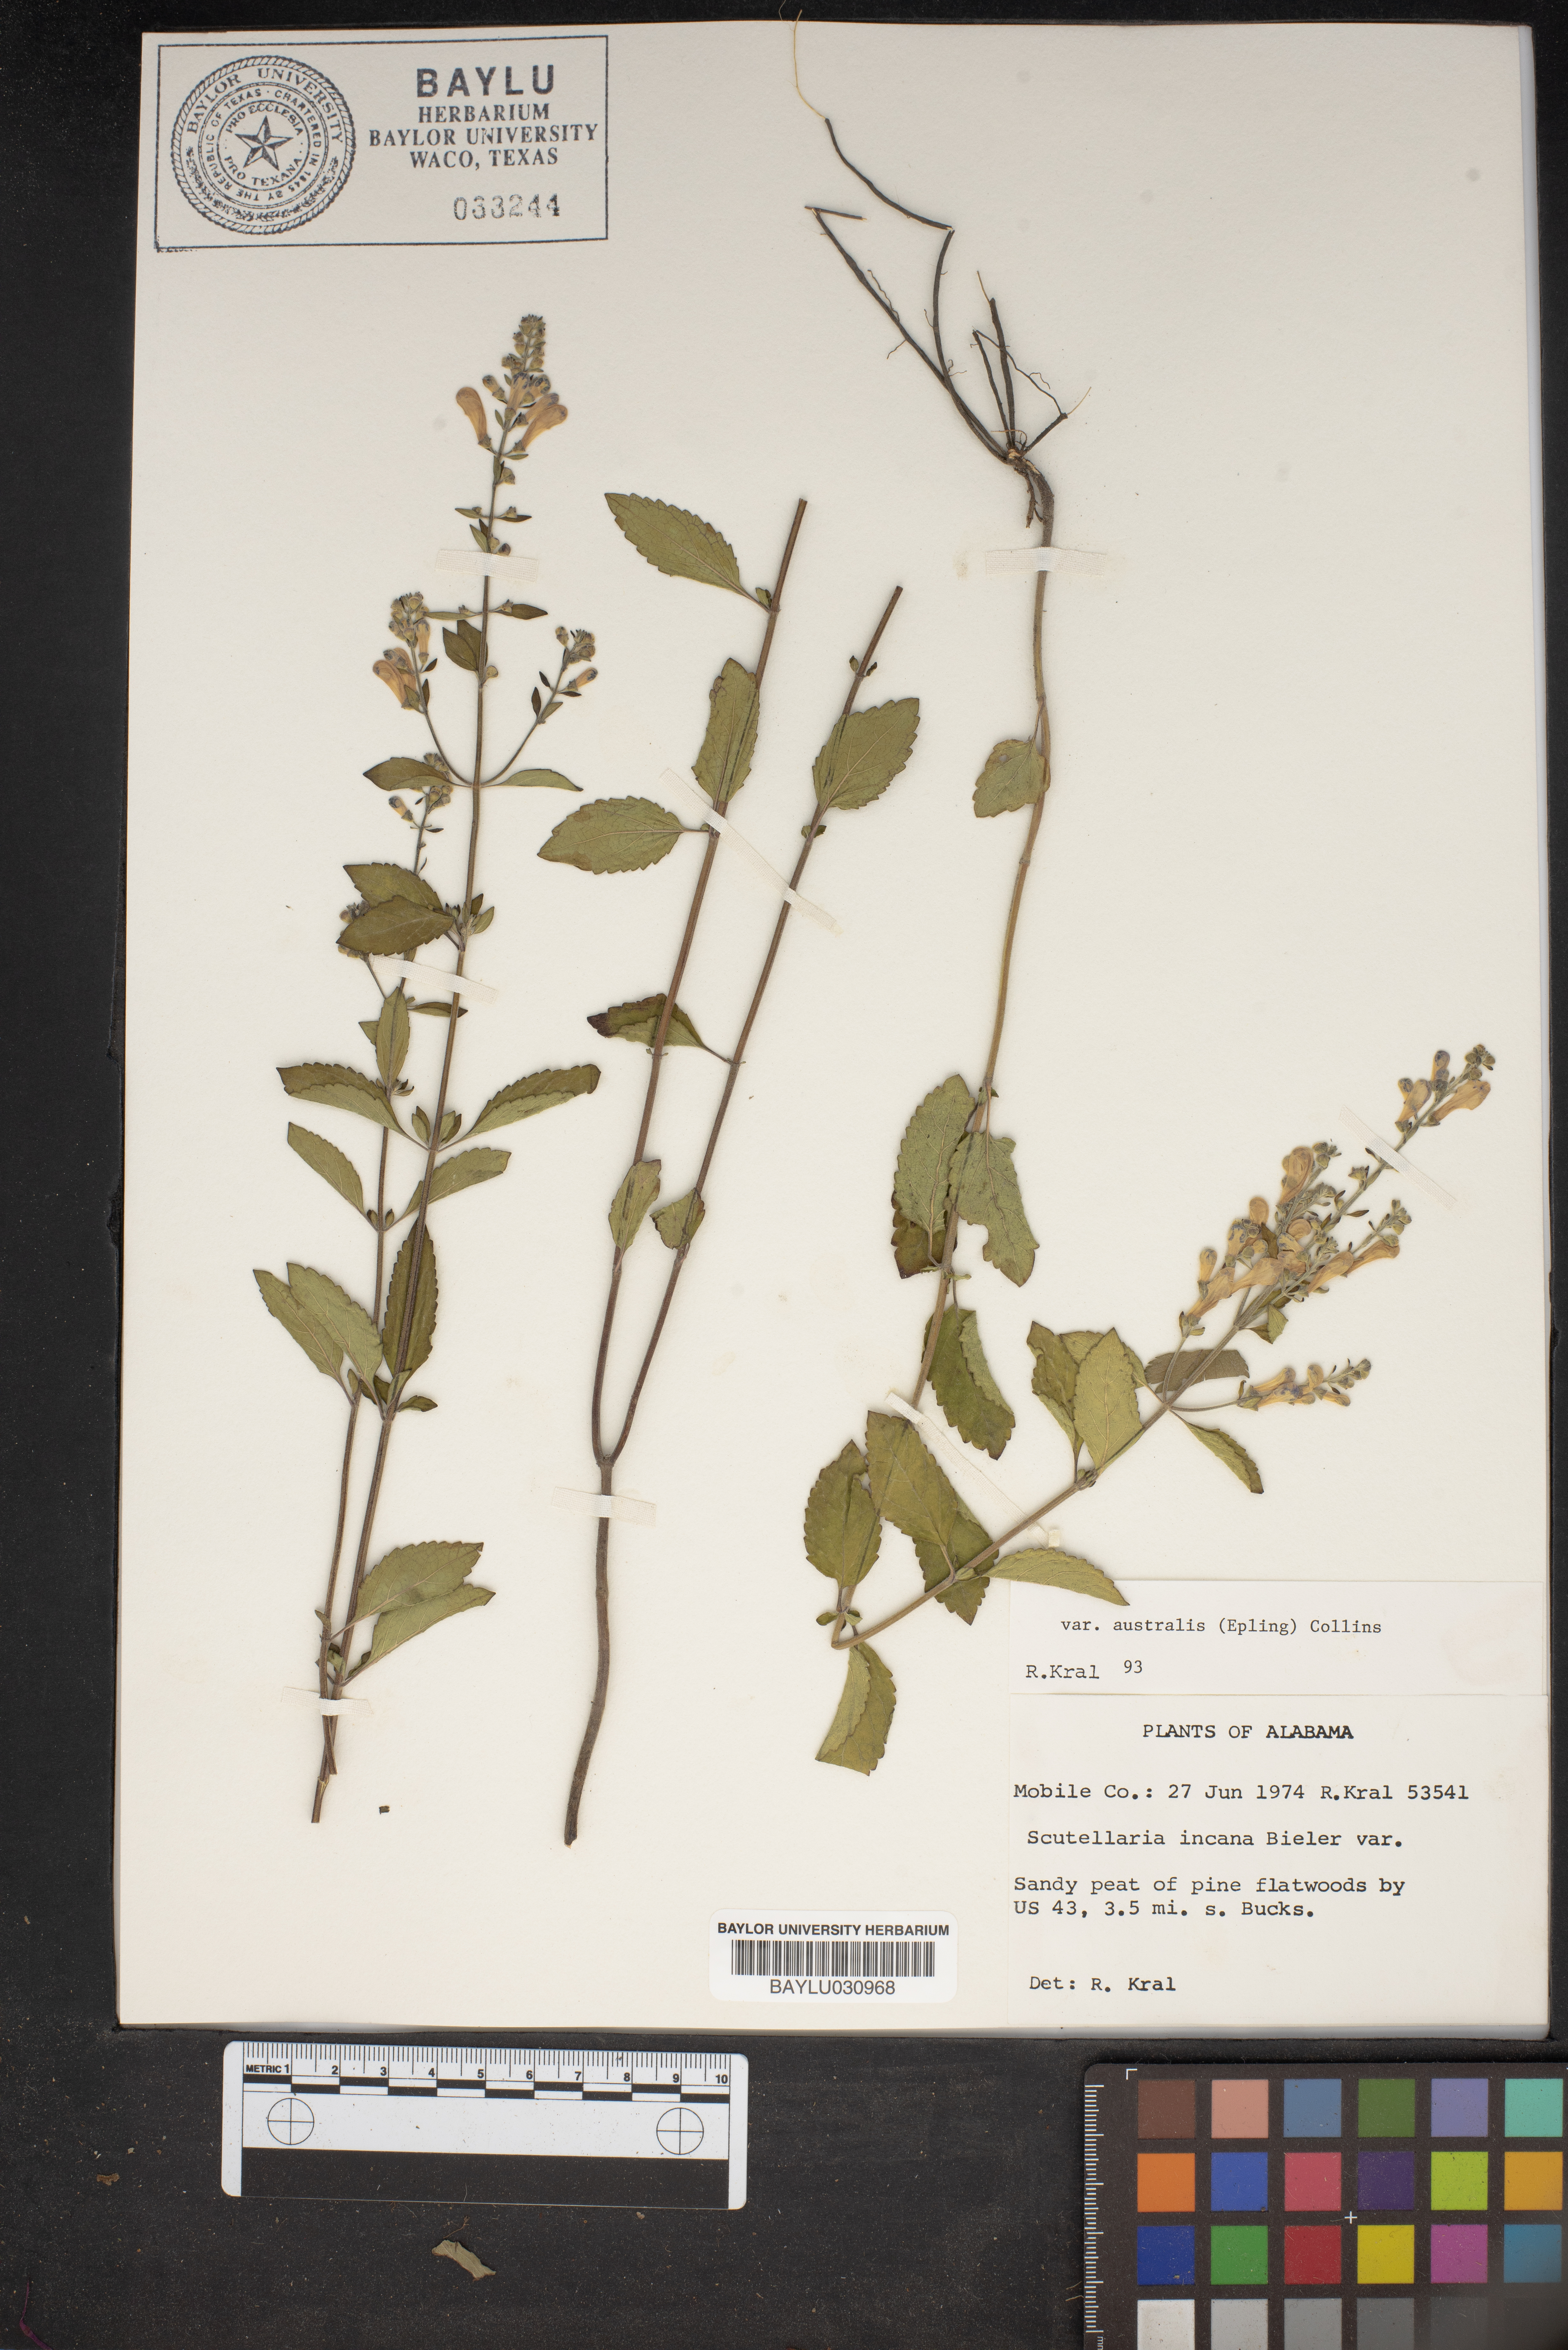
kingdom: Plantae
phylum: Tracheophyta
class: Magnoliopsida
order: Lamiales
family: Lamiaceae
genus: Scutellaria
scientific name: Scutellaria incana
